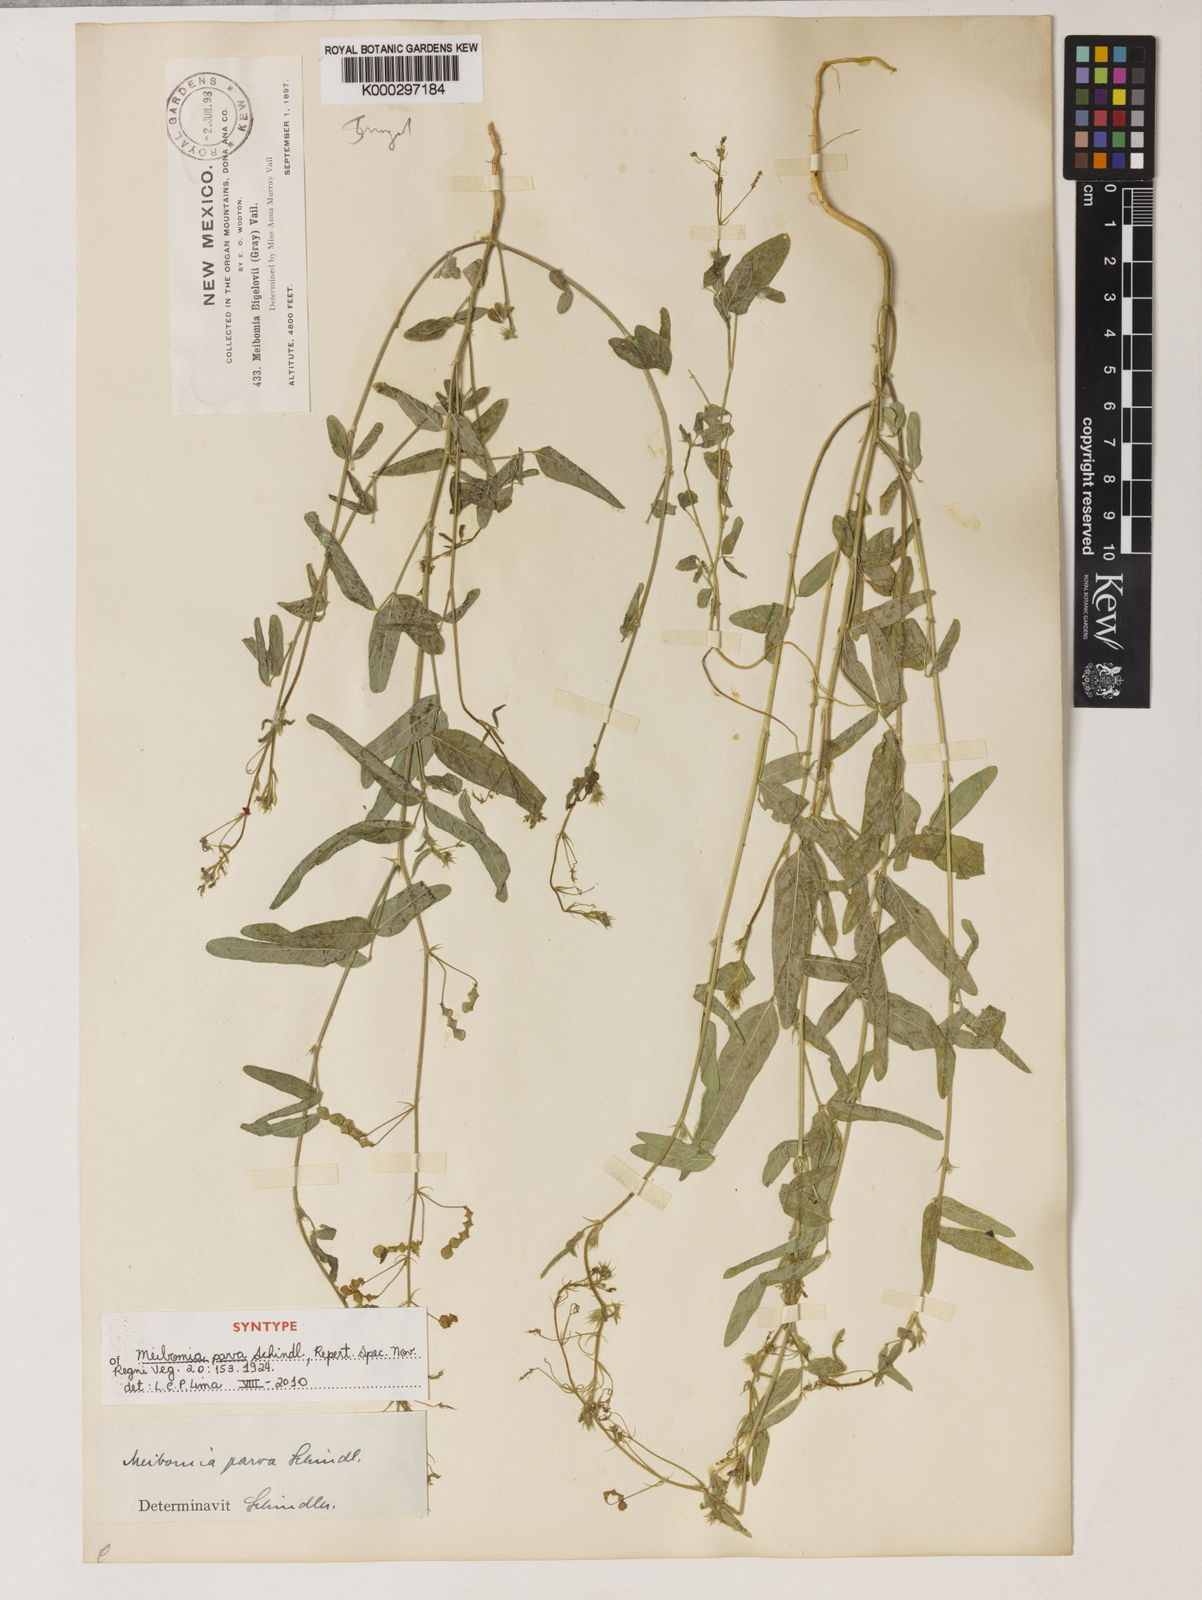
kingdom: Plantae
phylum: Tracheophyta
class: Magnoliopsida
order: Fabales
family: Fabaceae
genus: Desmodium
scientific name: Desmodium procumbens
